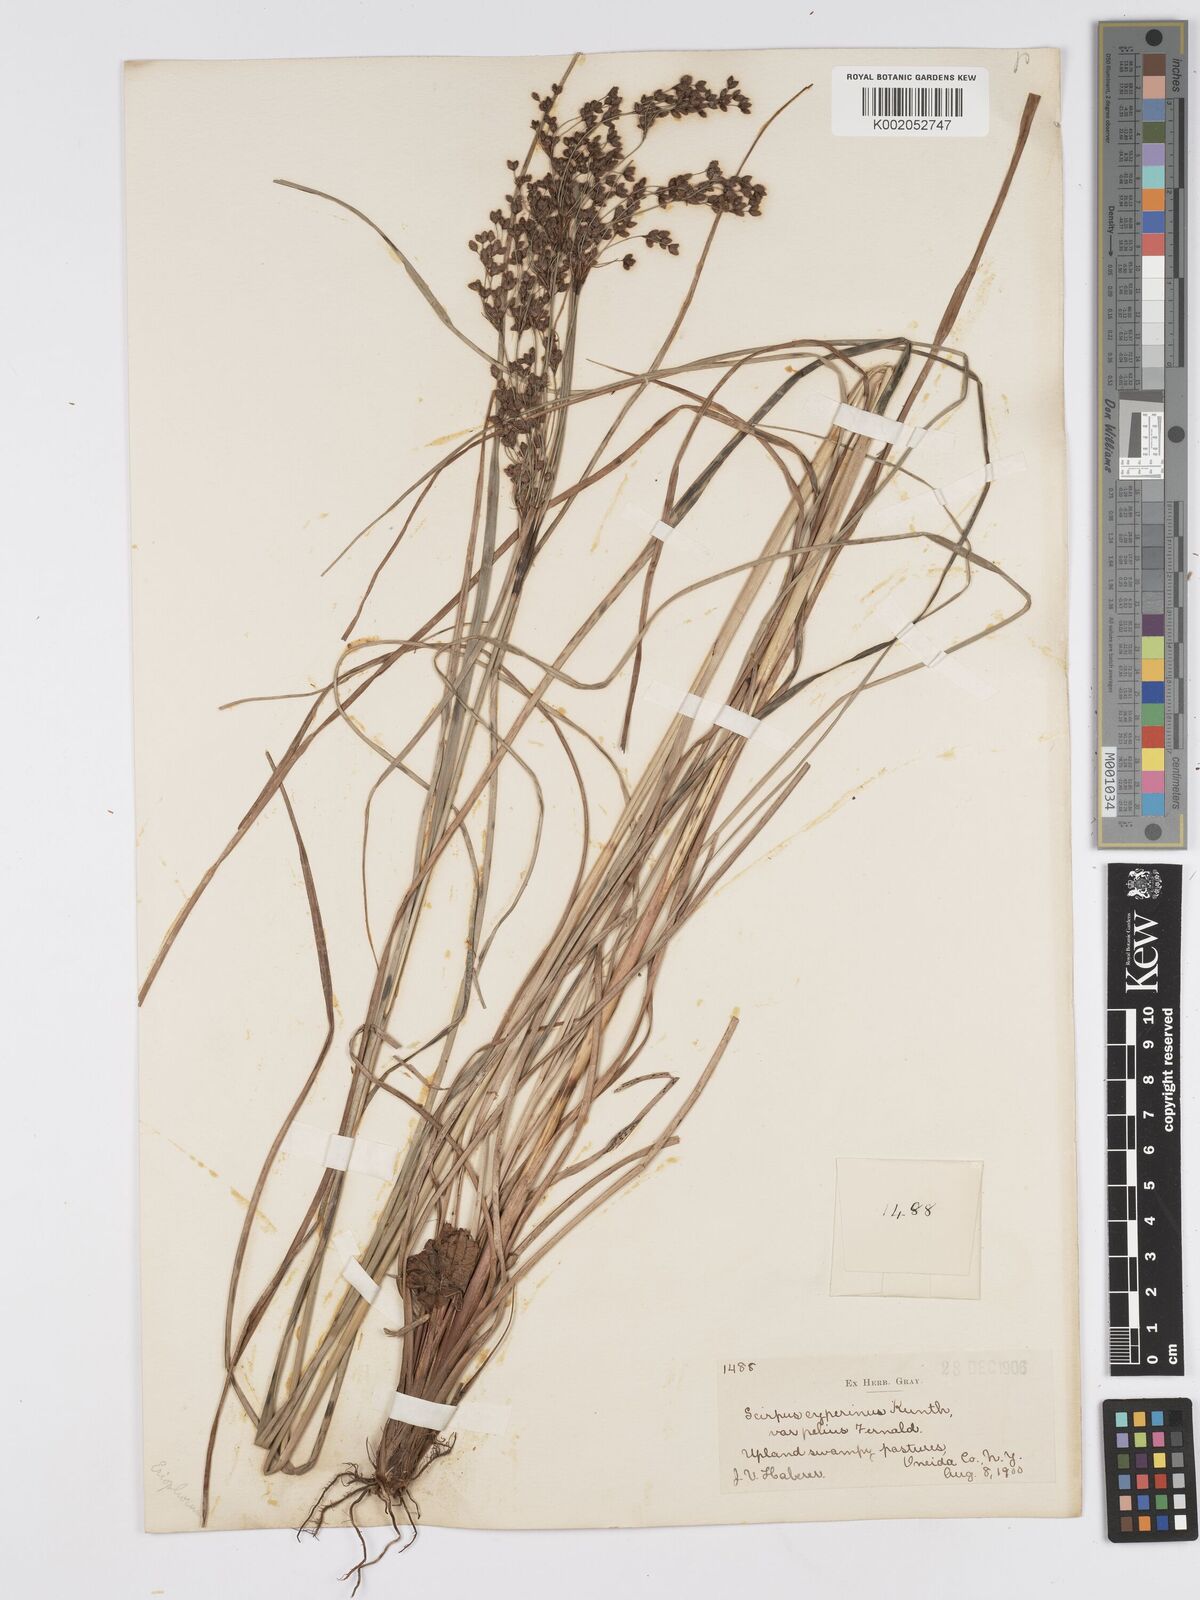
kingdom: Plantae
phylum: Tracheophyta
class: Liliopsida
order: Poales
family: Cyperaceae
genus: Scirpus
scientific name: Scirpus cyperinus
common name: Black-sheathed bulrush
